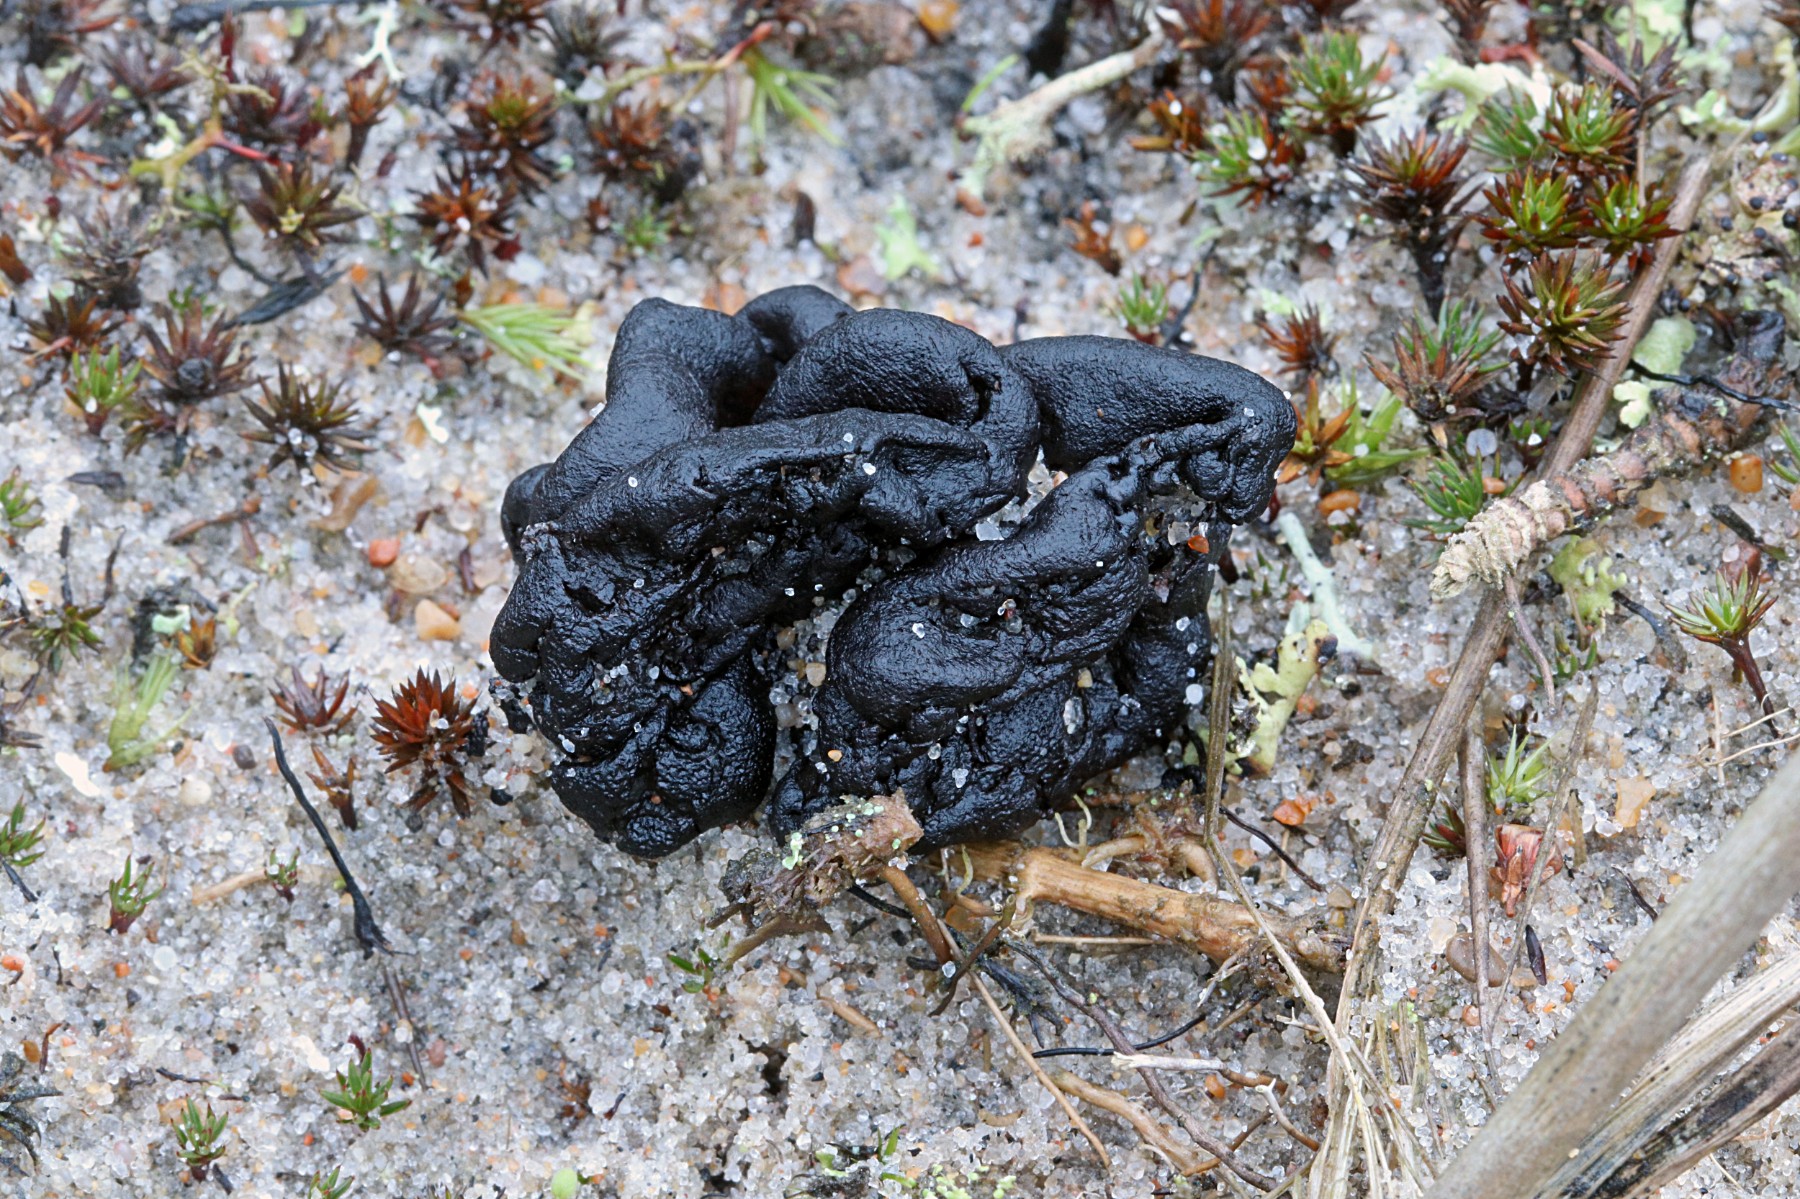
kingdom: Fungi
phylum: Ascomycota
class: Geoglossomycetes
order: Geoglossales
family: Geoglossaceae
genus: Sabuloglossum
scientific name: Sabuloglossum arenarium
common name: klit-jordtunge
